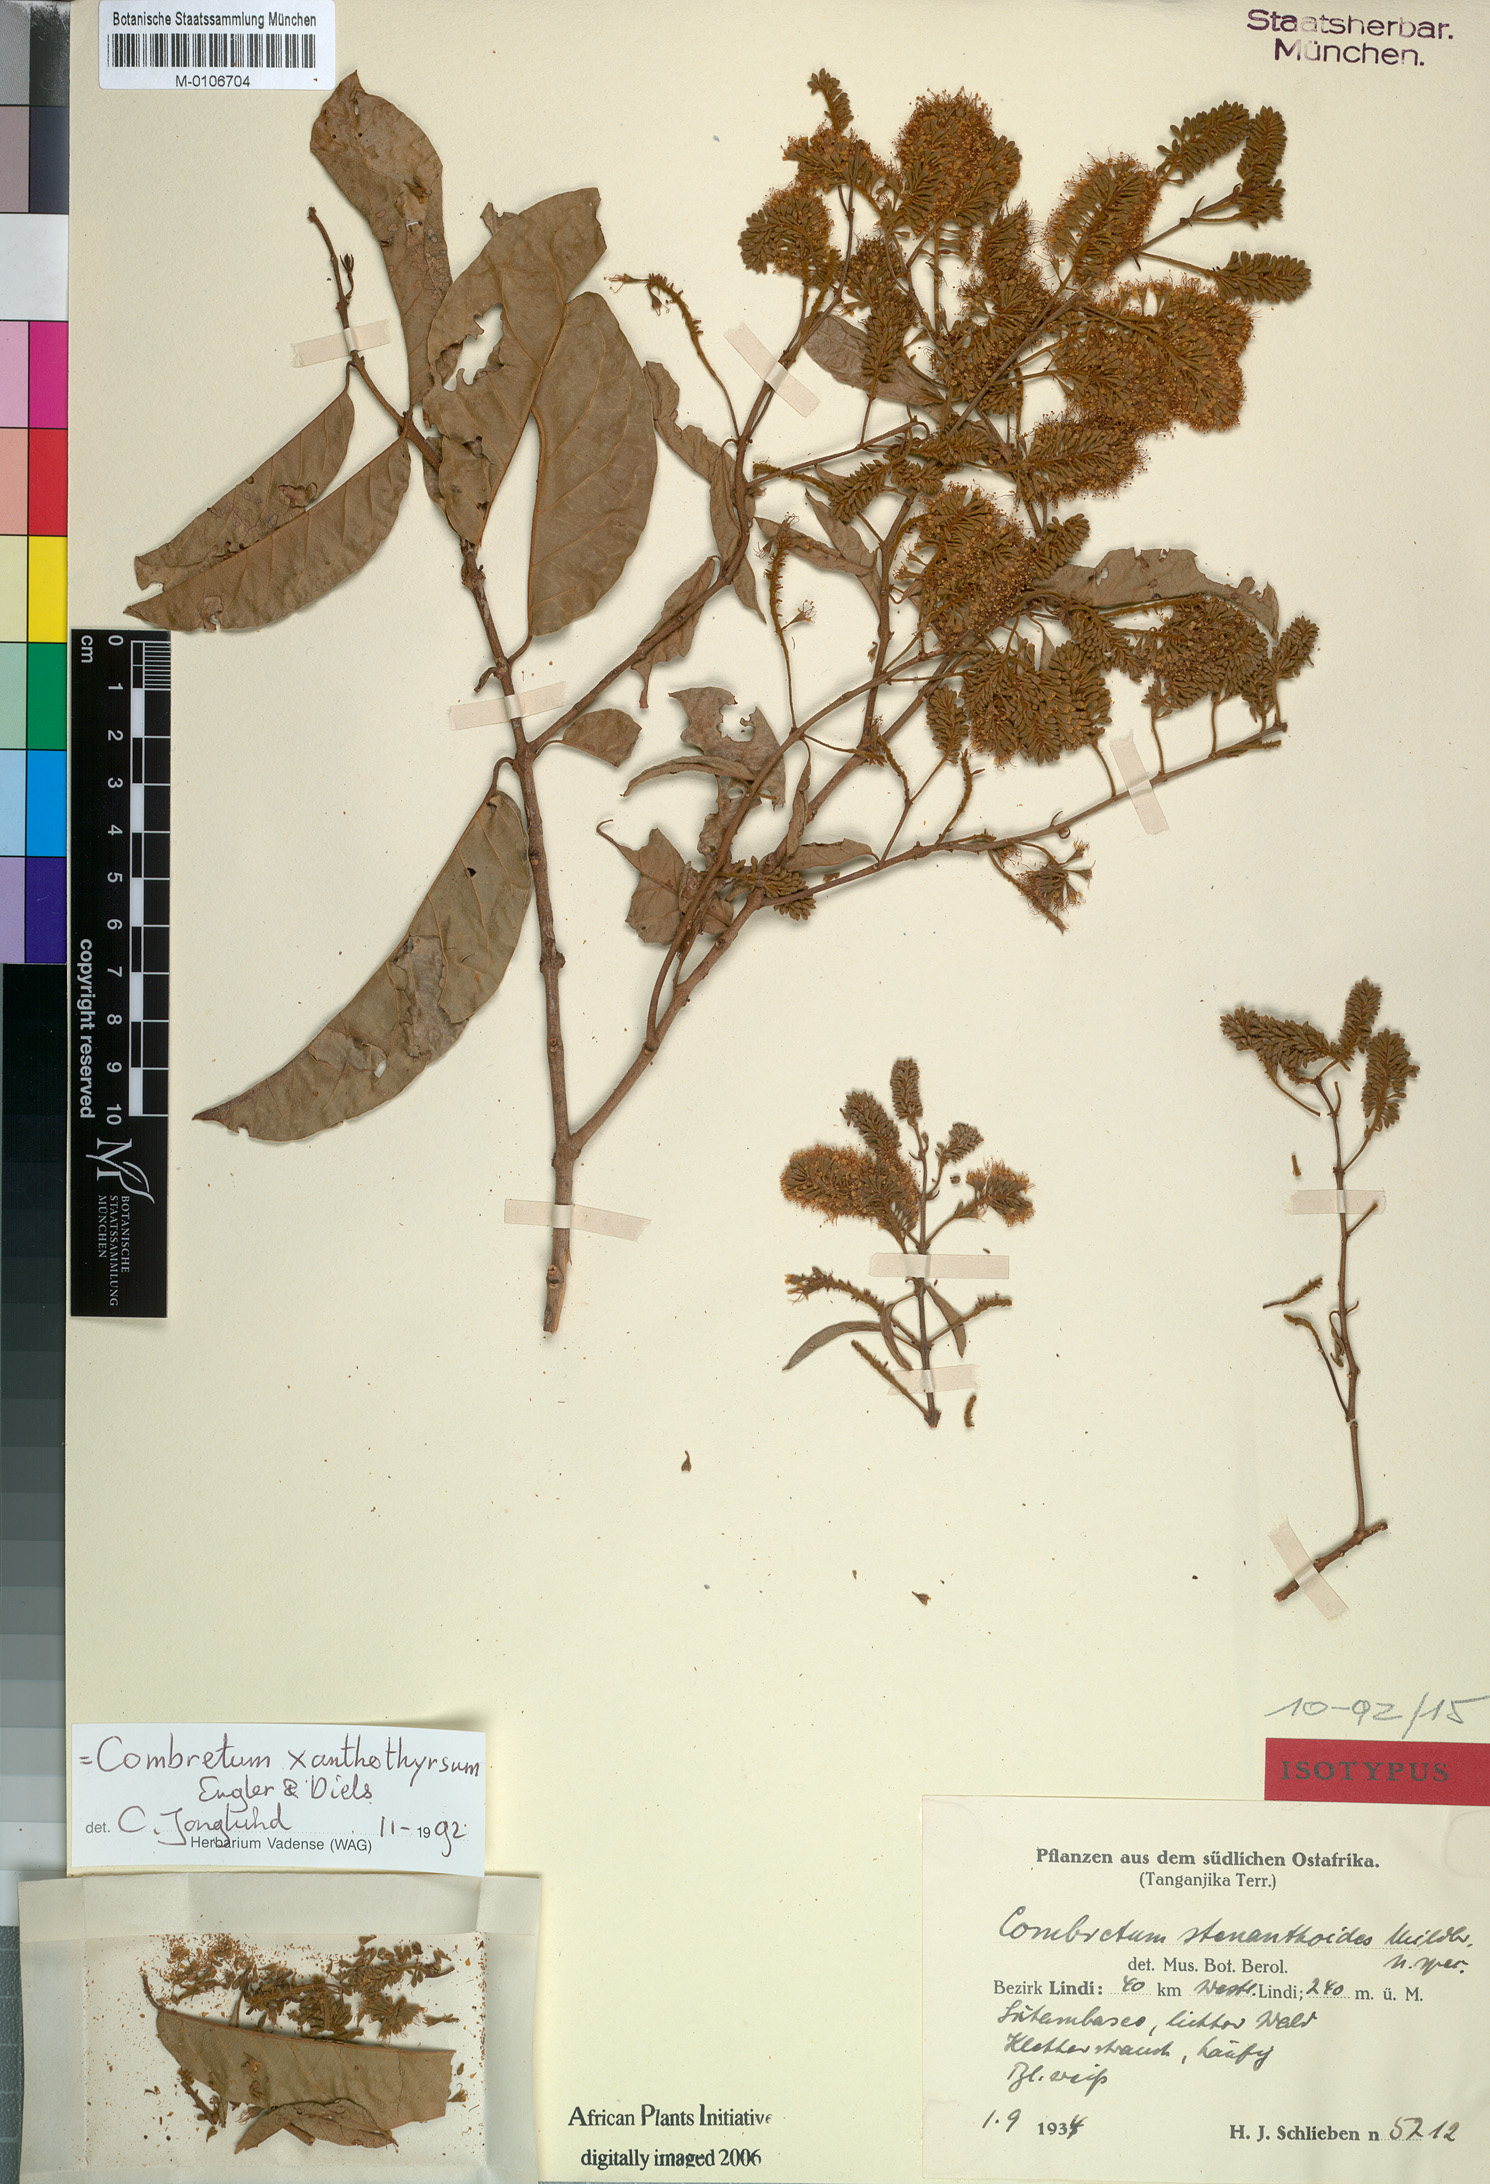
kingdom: Plantae
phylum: Tracheophyta
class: Magnoliopsida
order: Myrtales
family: Combretaceae
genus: Combretum
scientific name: Combretum xanthothyrsum
